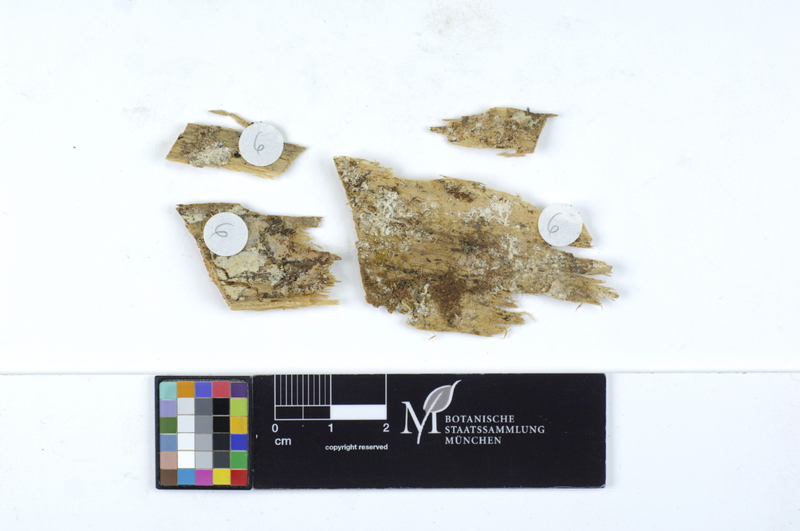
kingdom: Plantae
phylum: Tracheophyta
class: Pinopsida
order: Pinales
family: Pinaceae
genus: Larix
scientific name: Larix
